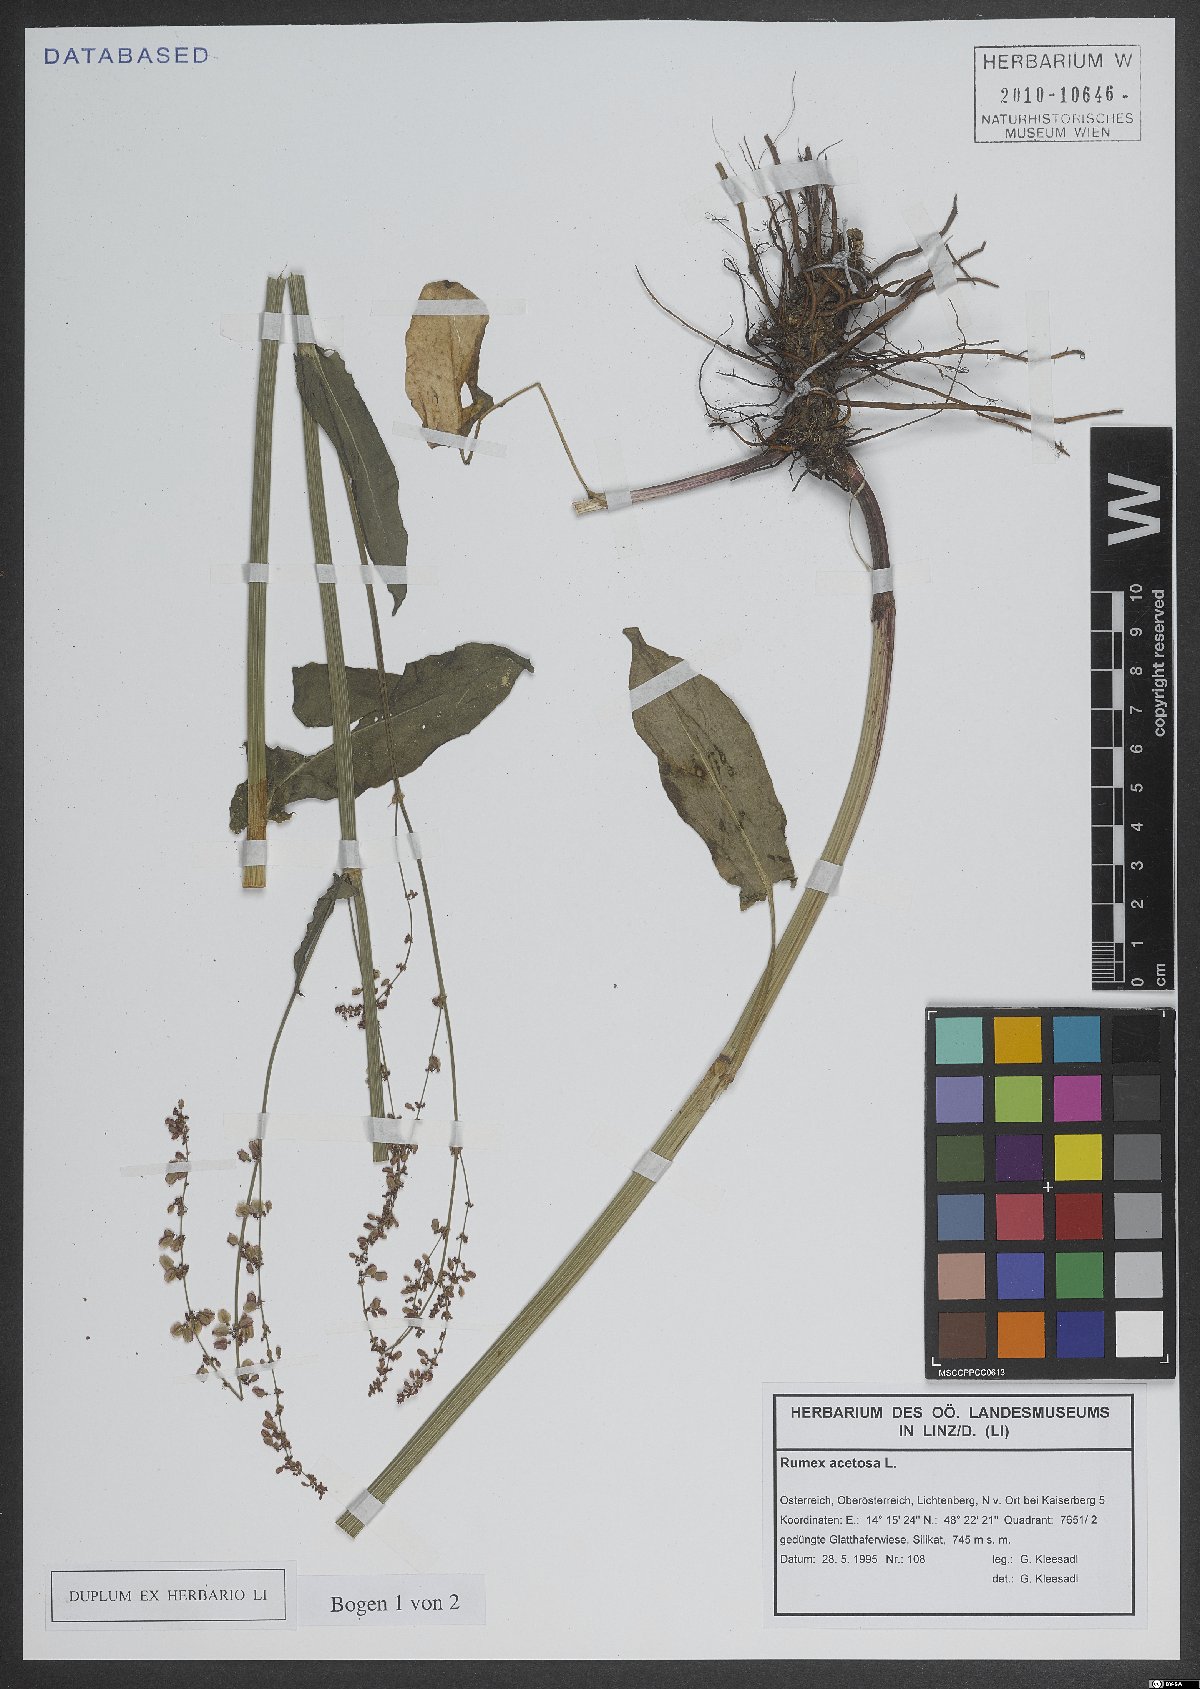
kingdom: Plantae
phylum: Tracheophyta
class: Magnoliopsida
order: Caryophyllales
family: Polygonaceae
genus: Rumex
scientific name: Rumex acetosa
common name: Garden sorrel
